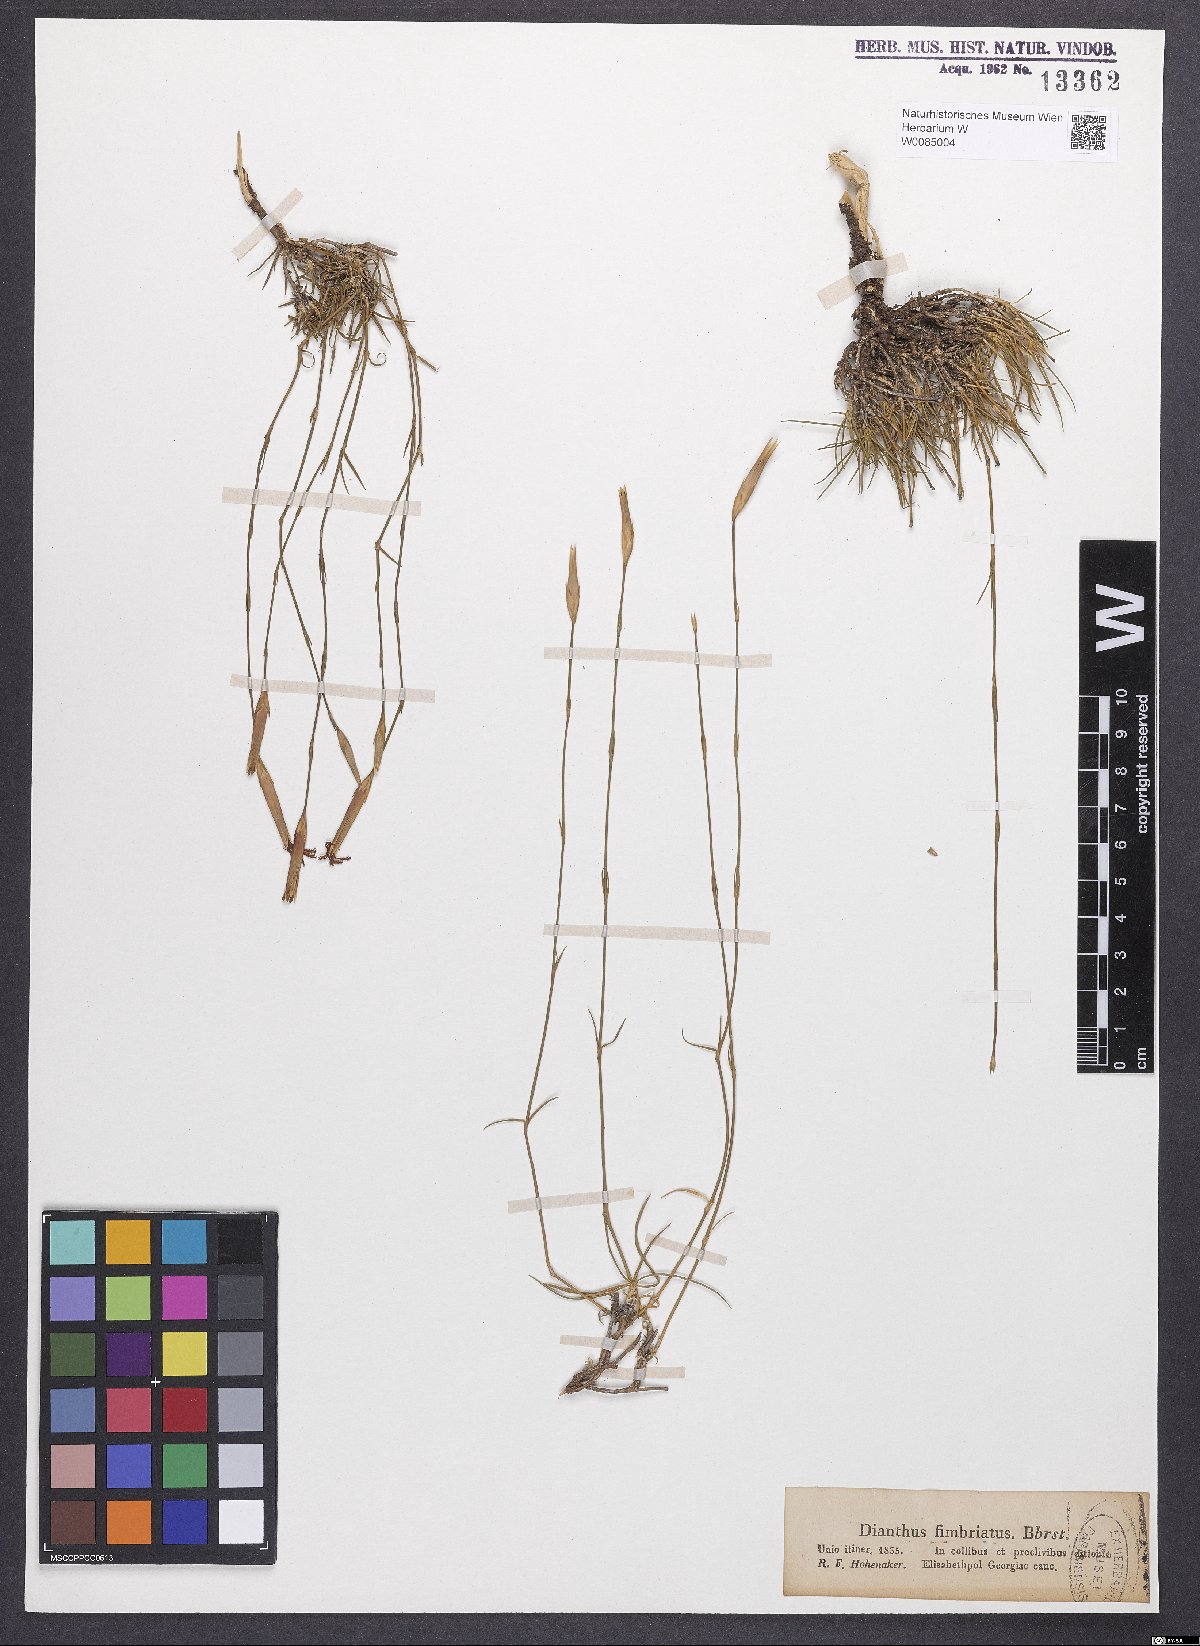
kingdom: Plantae
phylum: Tracheophyta
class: Magnoliopsida
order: Caryophyllales
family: Caryophyllaceae
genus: Dianthus
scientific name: Dianthus broteri
